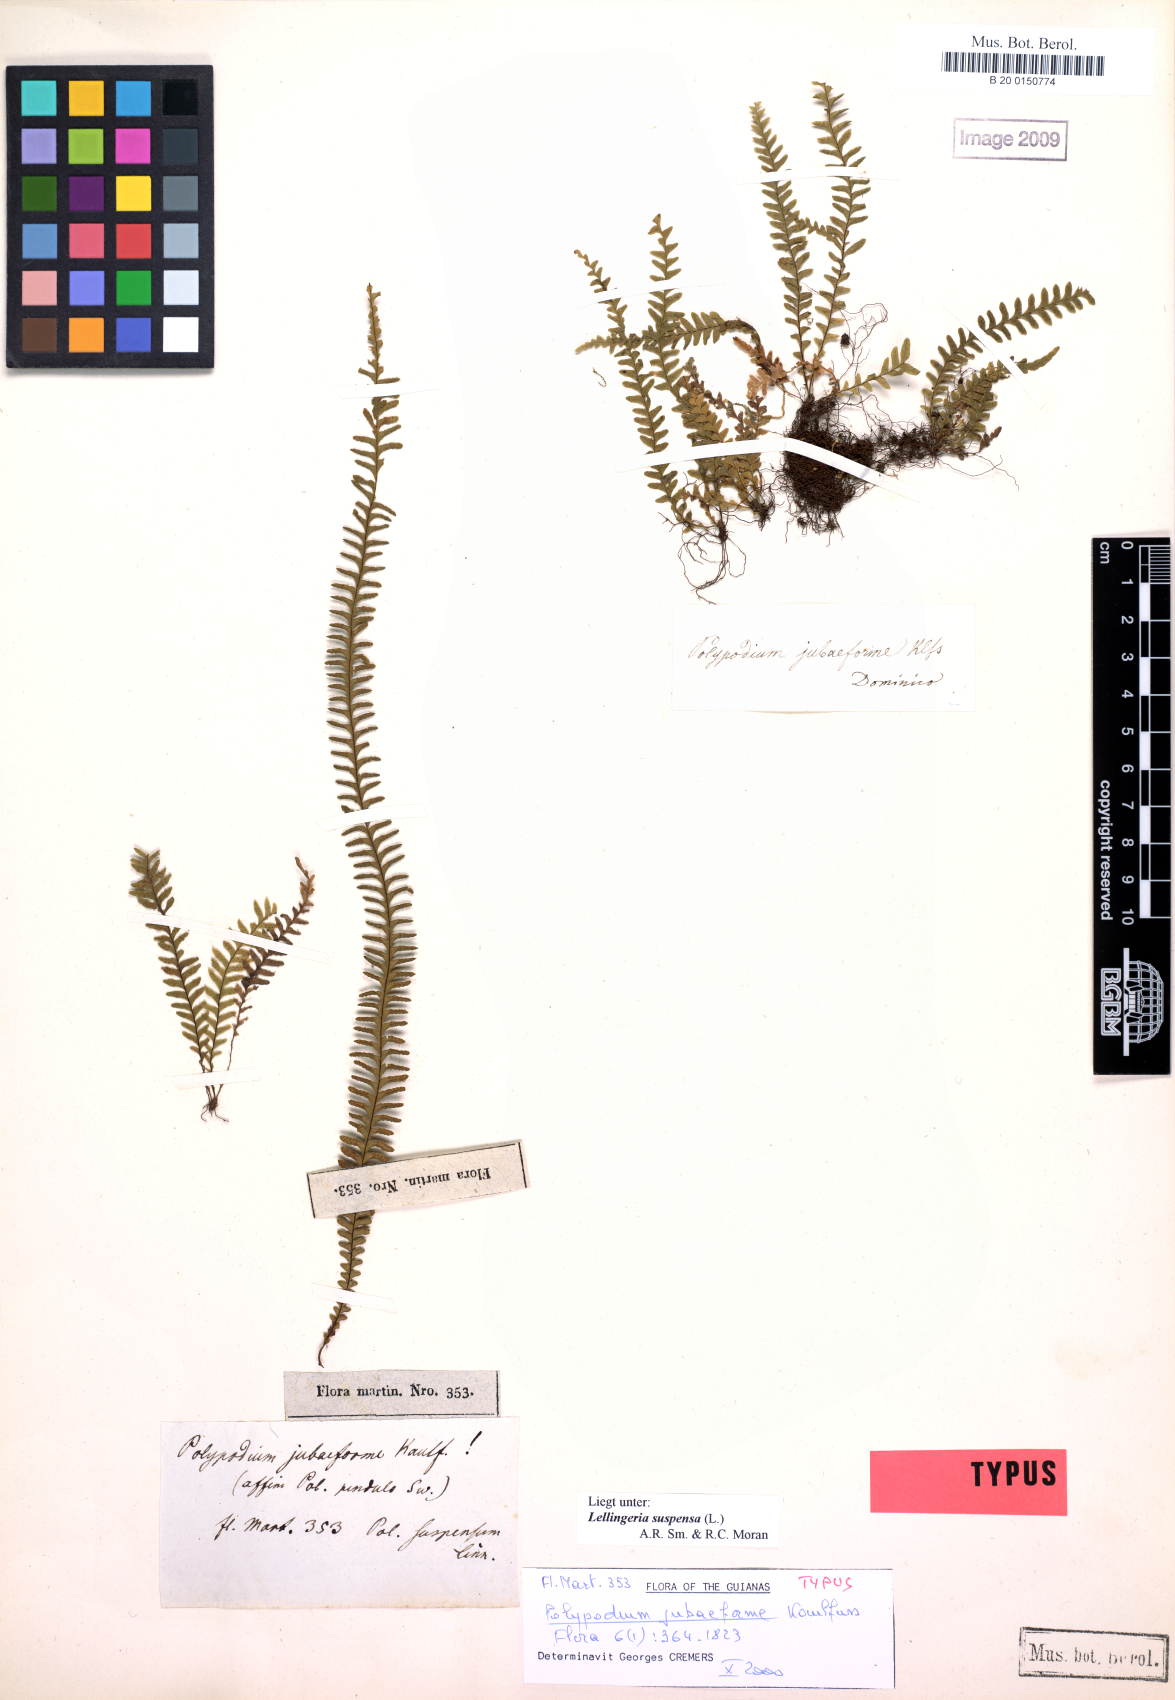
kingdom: Plantae
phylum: Tracheophyta
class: Polypodiopsida
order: Polypodiales
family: Polypodiaceae
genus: Lellingeria
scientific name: Lellingeria suspensa
